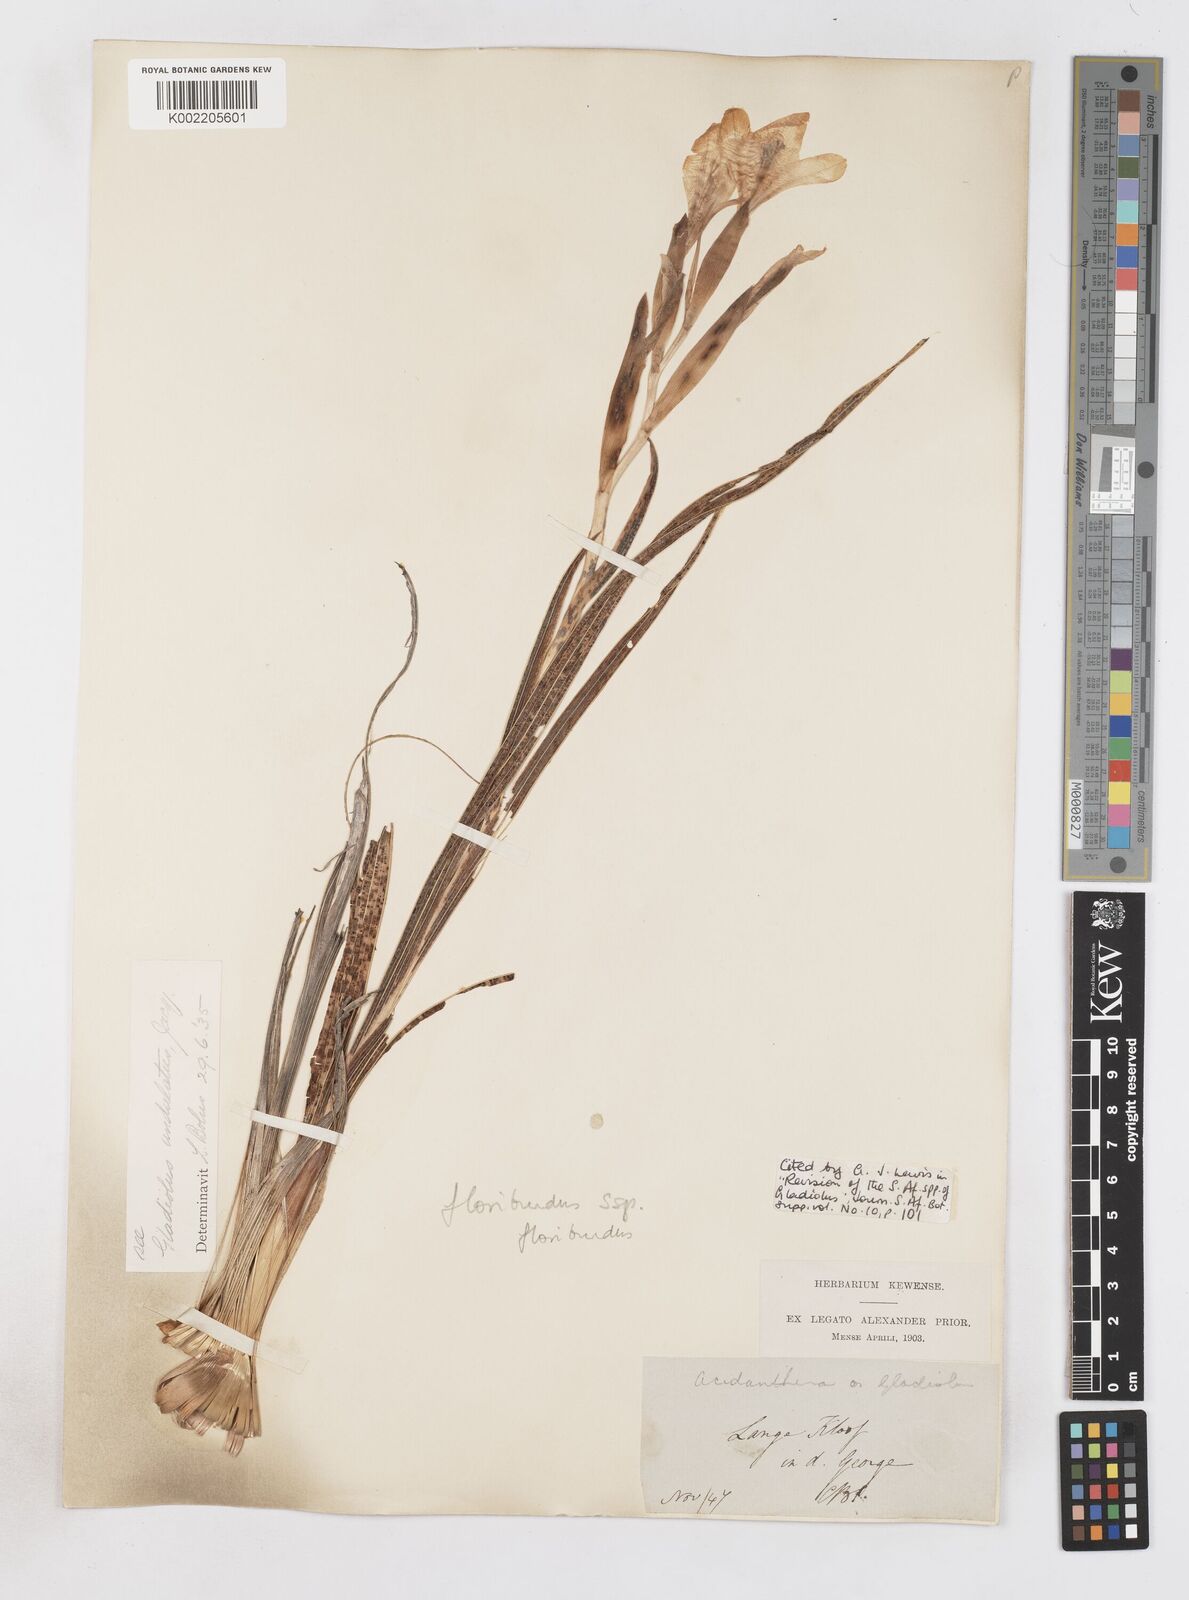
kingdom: Plantae
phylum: Tracheophyta
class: Liliopsida
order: Asparagales
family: Iridaceae
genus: Gladiolus
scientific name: Gladiolus floribundus
